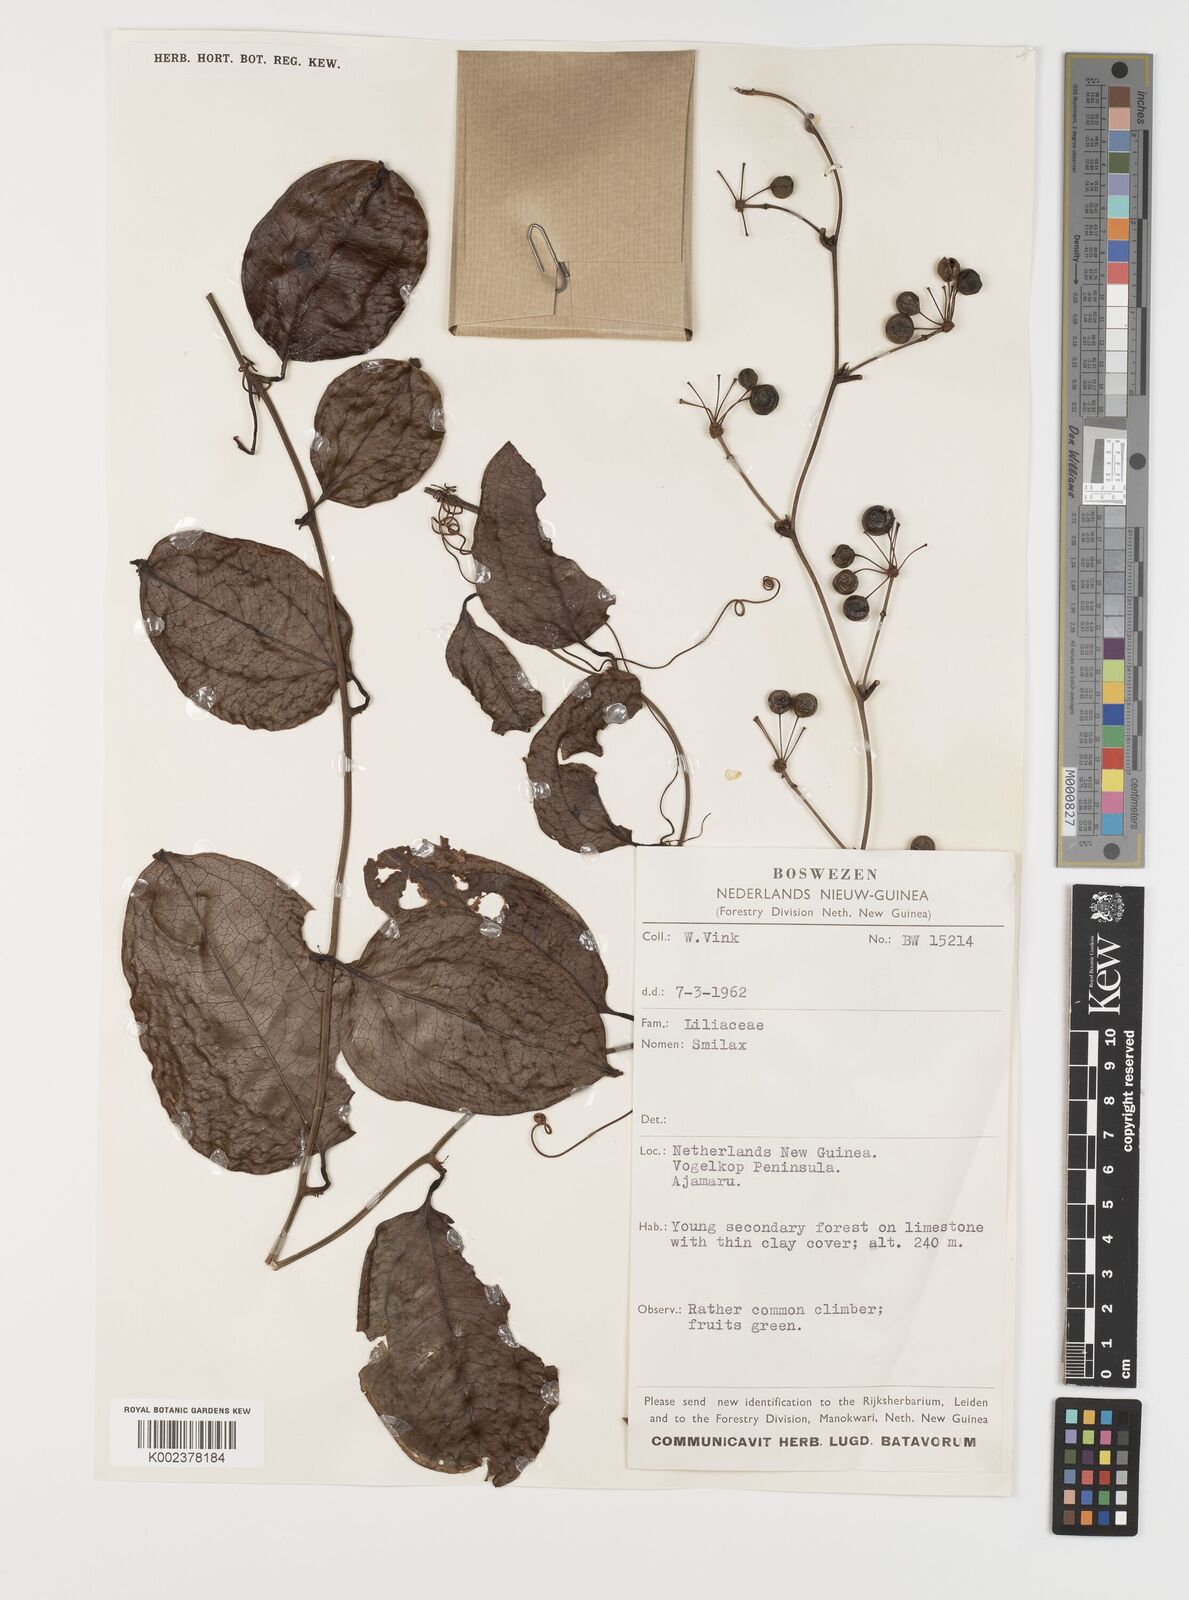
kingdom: Plantae
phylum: Tracheophyta
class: Liliopsida
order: Liliales
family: Smilacaceae
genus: Smilax
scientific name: Smilax
